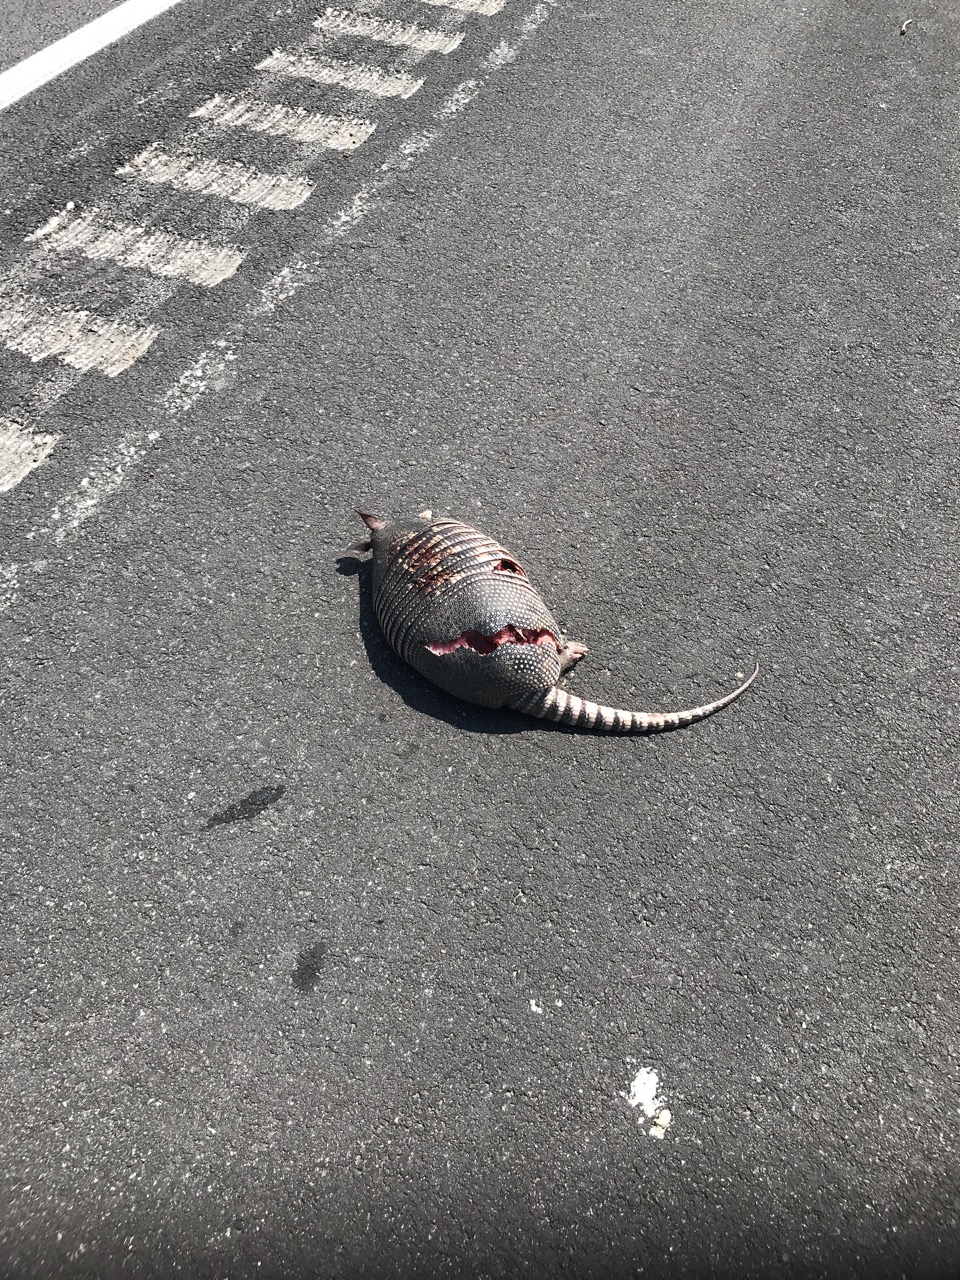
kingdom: Animalia
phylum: Chordata
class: Mammalia
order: Cingulata
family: Dasypodidae
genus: Dasypus
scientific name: Dasypus novemcinctus
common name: Nine-banded armadillo
